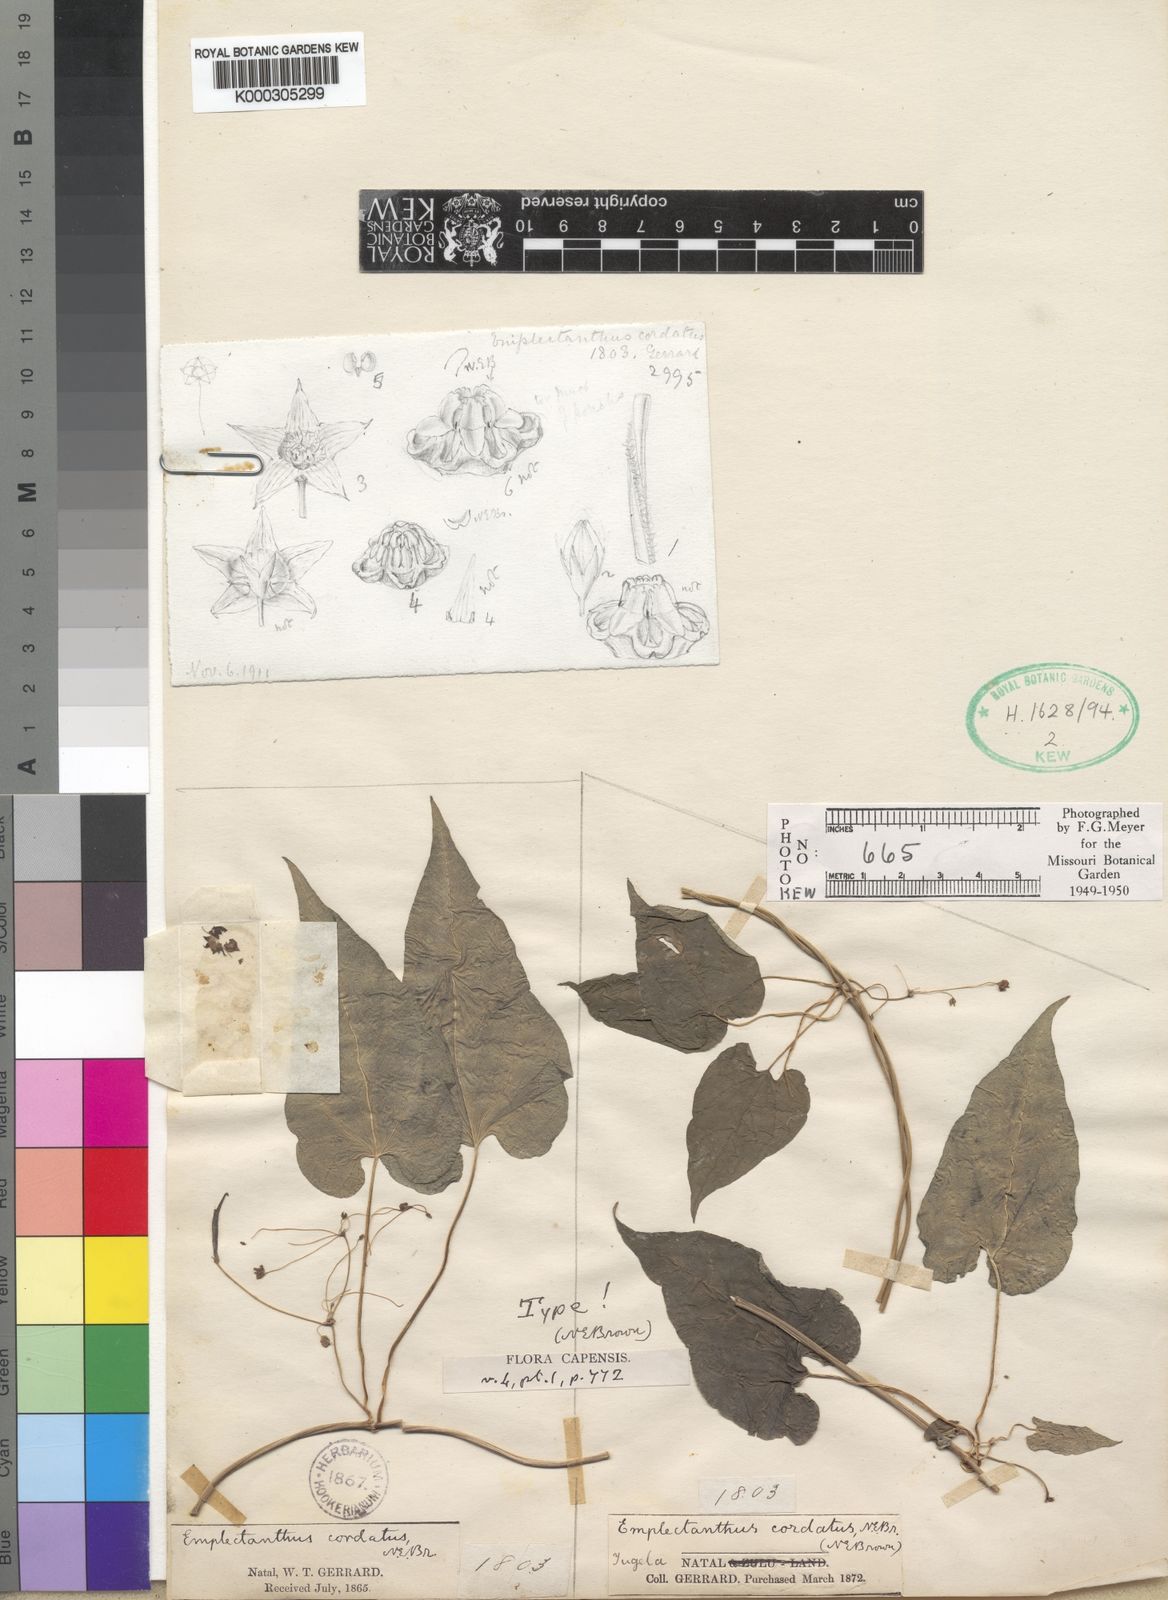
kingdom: Plantae
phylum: Tracheophyta
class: Magnoliopsida
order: Gentianales
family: Apocynaceae
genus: Emplectanthus
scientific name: Emplectanthus cordatus
